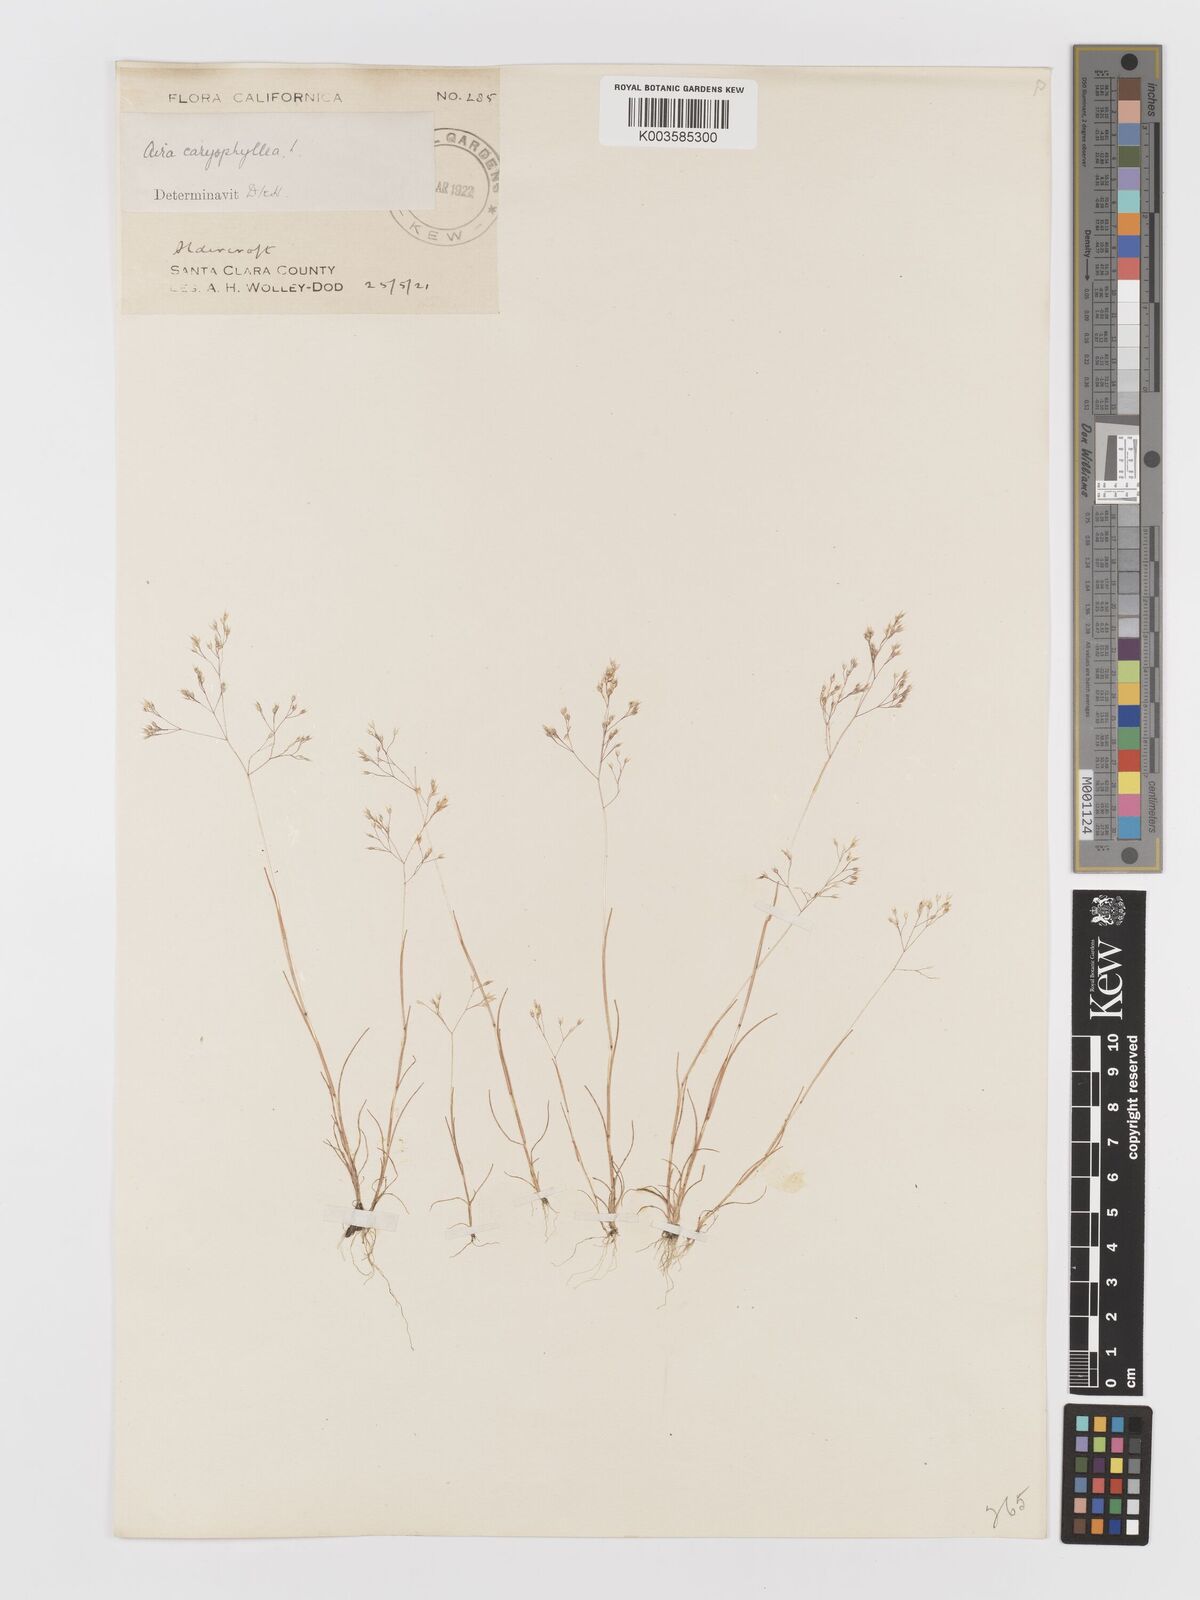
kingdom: Plantae
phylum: Tracheophyta
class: Liliopsida
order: Poales
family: Poaceae
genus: Aira
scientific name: Aira caryophyllea
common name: Silver hairgrass
